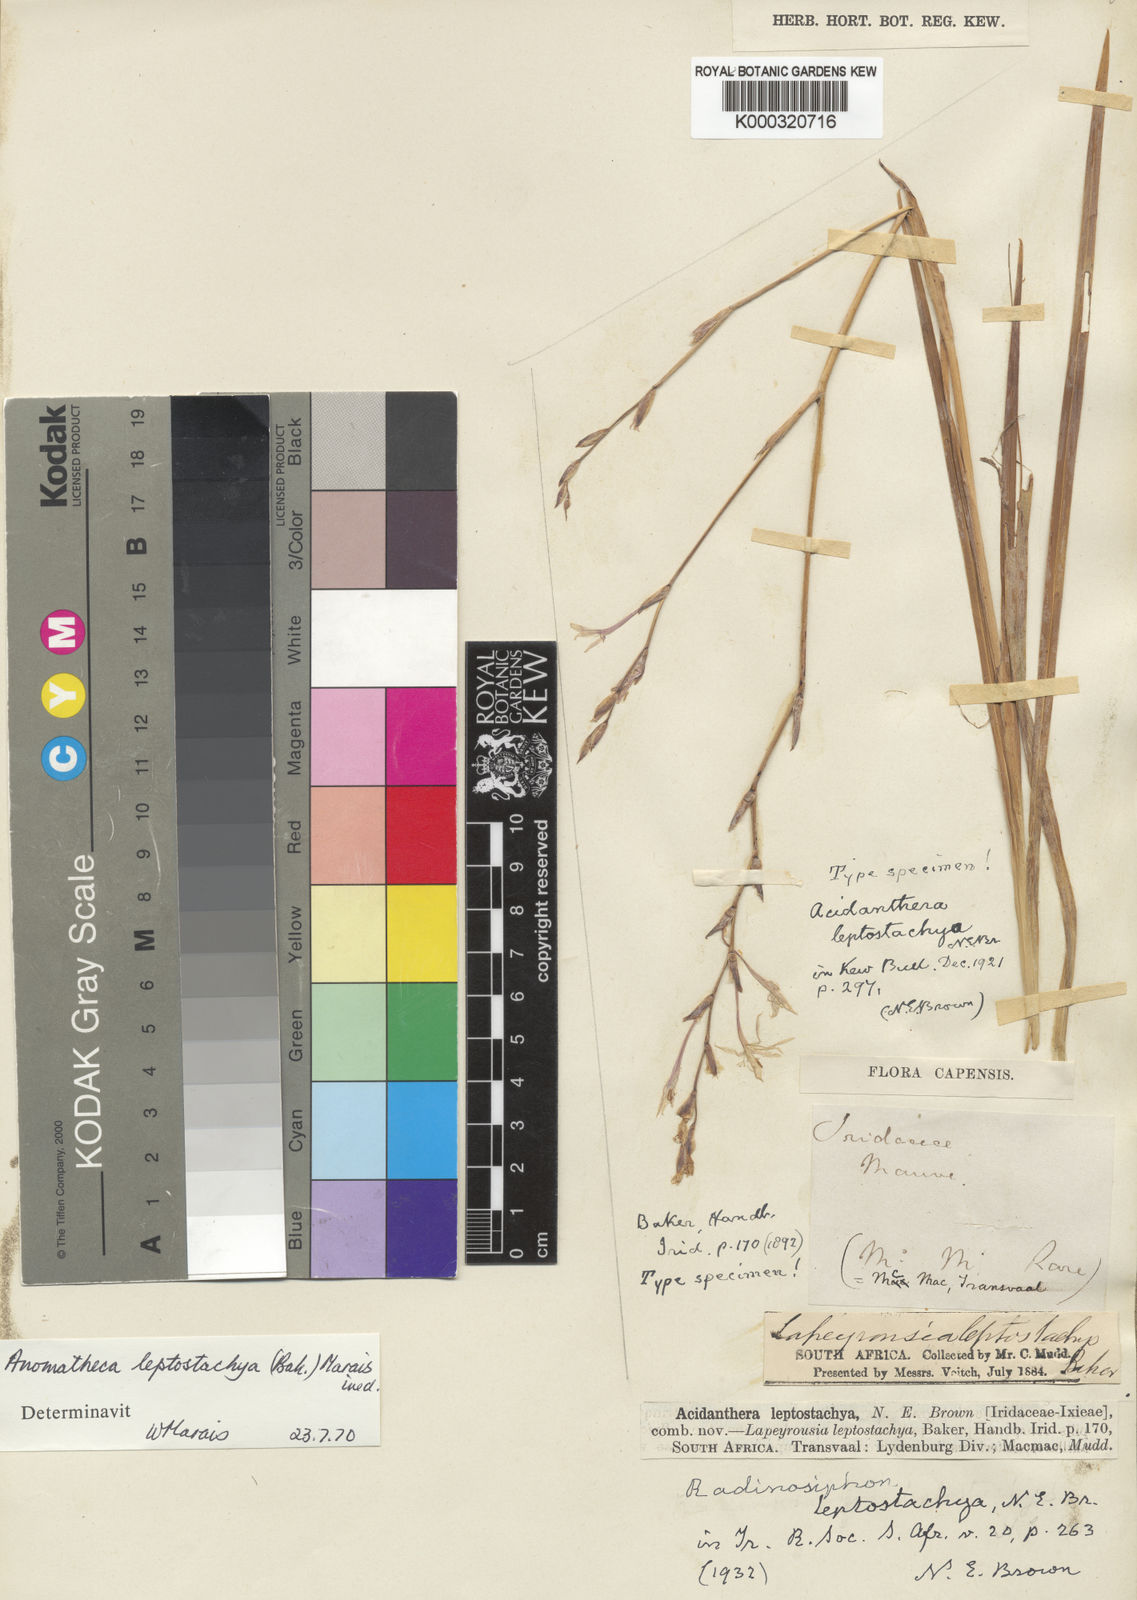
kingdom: Plantae
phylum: Tracheophyta
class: Liliopsida
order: Asparagales
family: Iridaceae
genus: Radinosiphon
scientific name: Radinosiphon leptostachya
